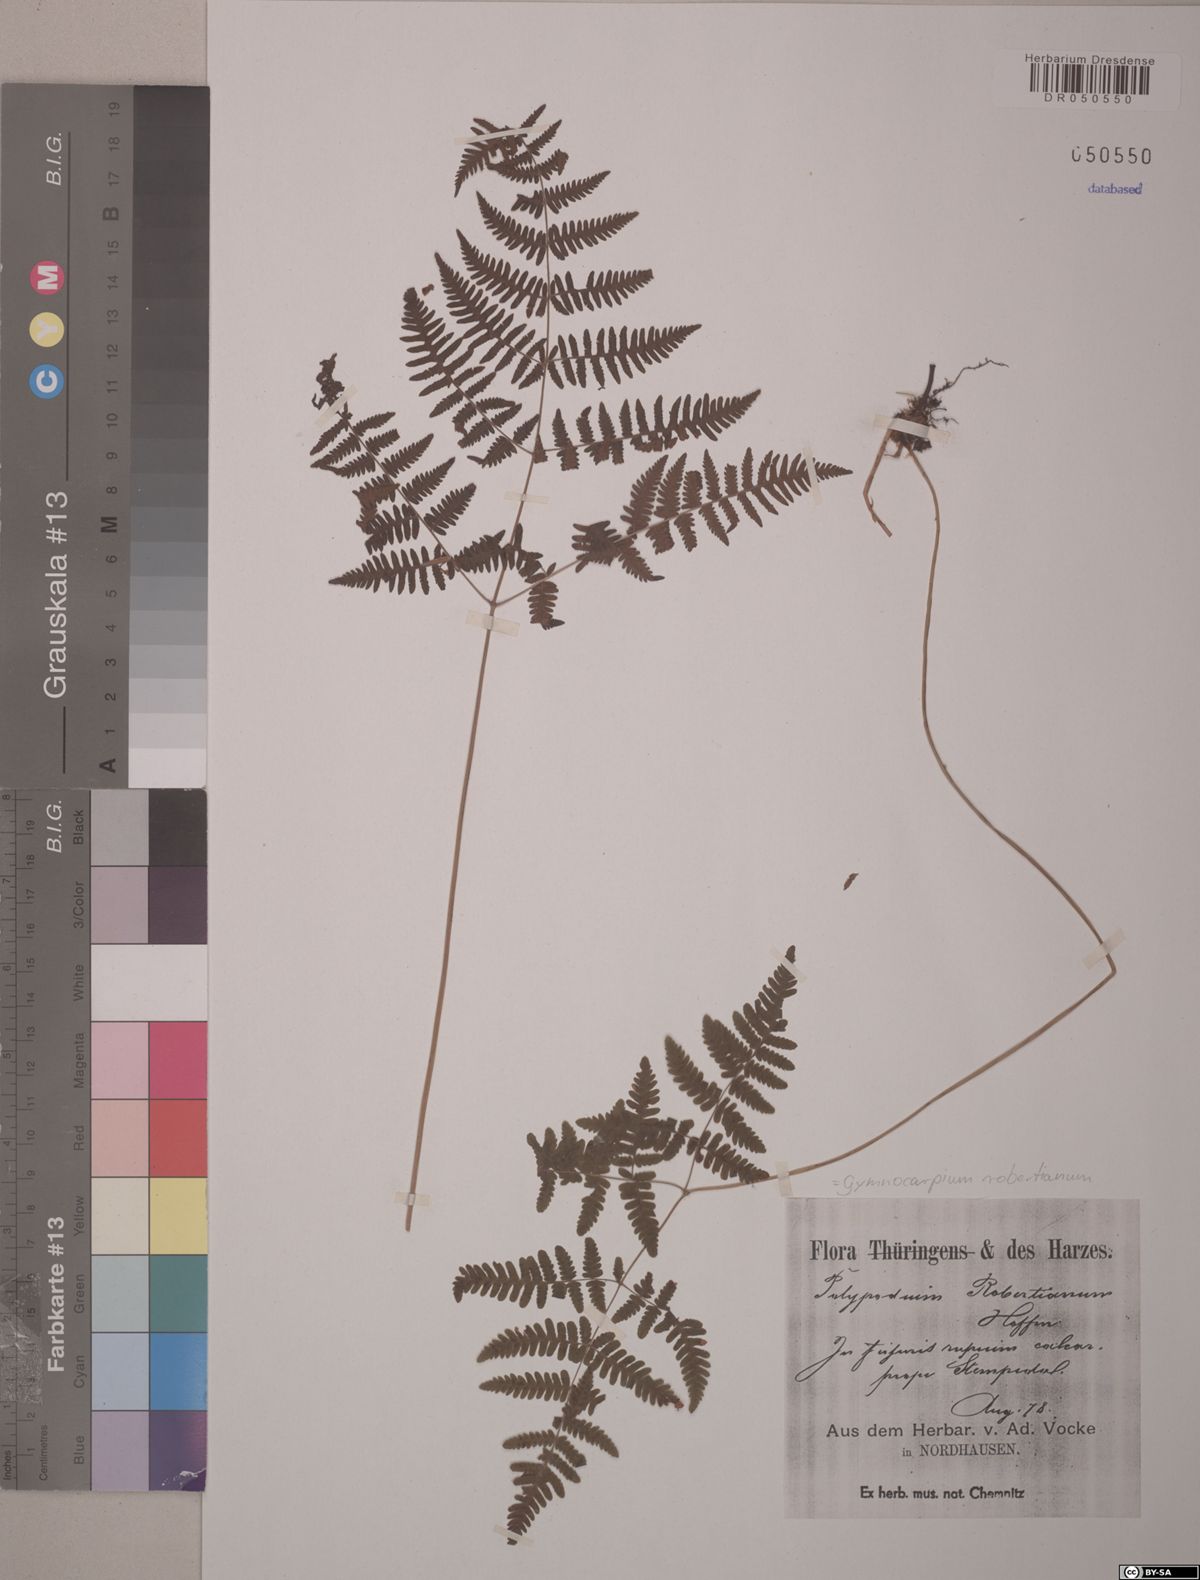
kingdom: Plantae
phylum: Tracheophyta
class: Polypodiopsida
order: Polypodiales
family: Cystopteridaceae
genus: Gymnocarpium
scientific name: Gymnocarpium robertianum
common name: Limestone fern
